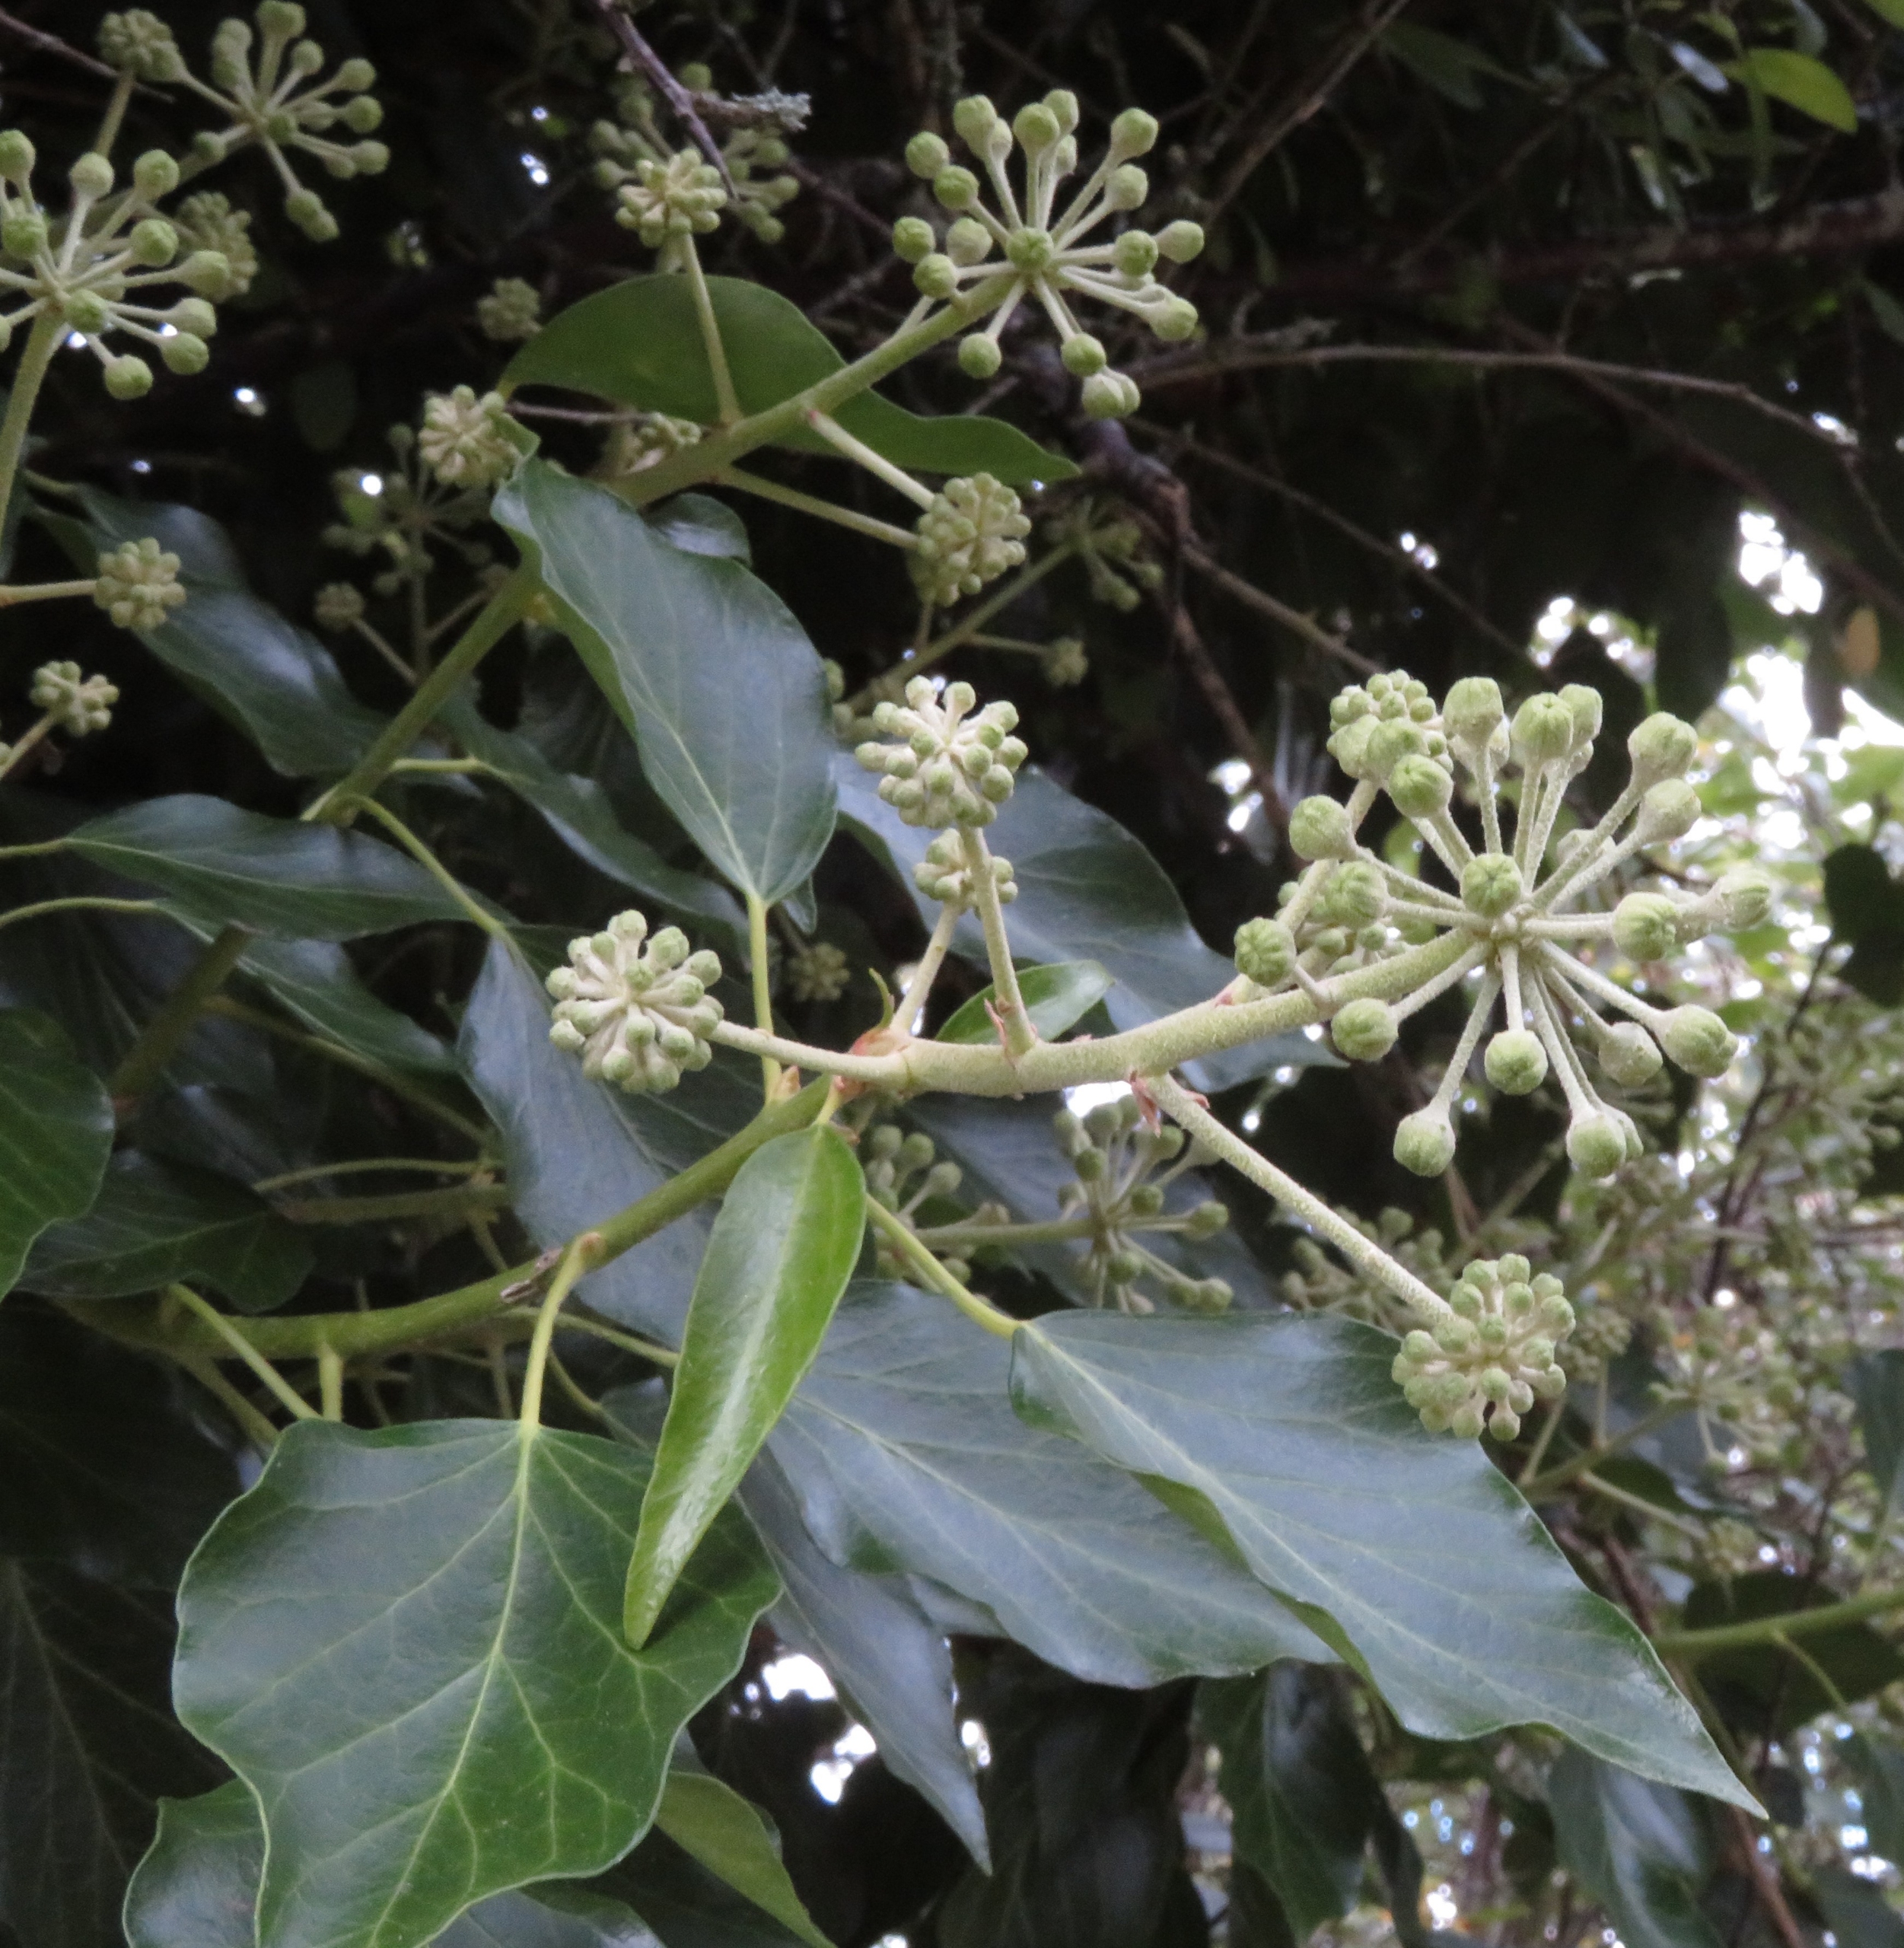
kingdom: Plantae
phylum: Tracheophyta
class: Magnoliopsida
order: Apiales
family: Araliaceae
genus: Hedera
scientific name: Hedera helix
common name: Vedbend
